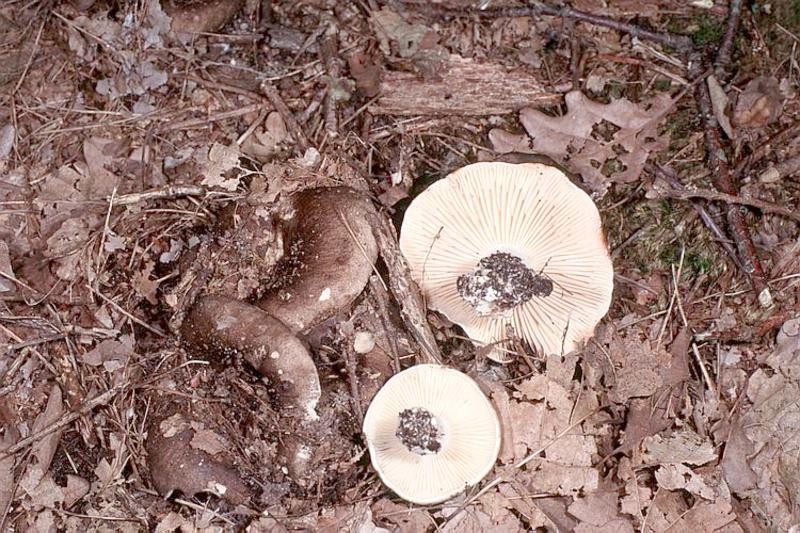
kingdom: Fungi
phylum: Basidiomycota
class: Agaricomycetes
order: Russulales
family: Russulaceae
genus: Russula
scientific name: Russula adusta
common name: Winecork brittlegill
